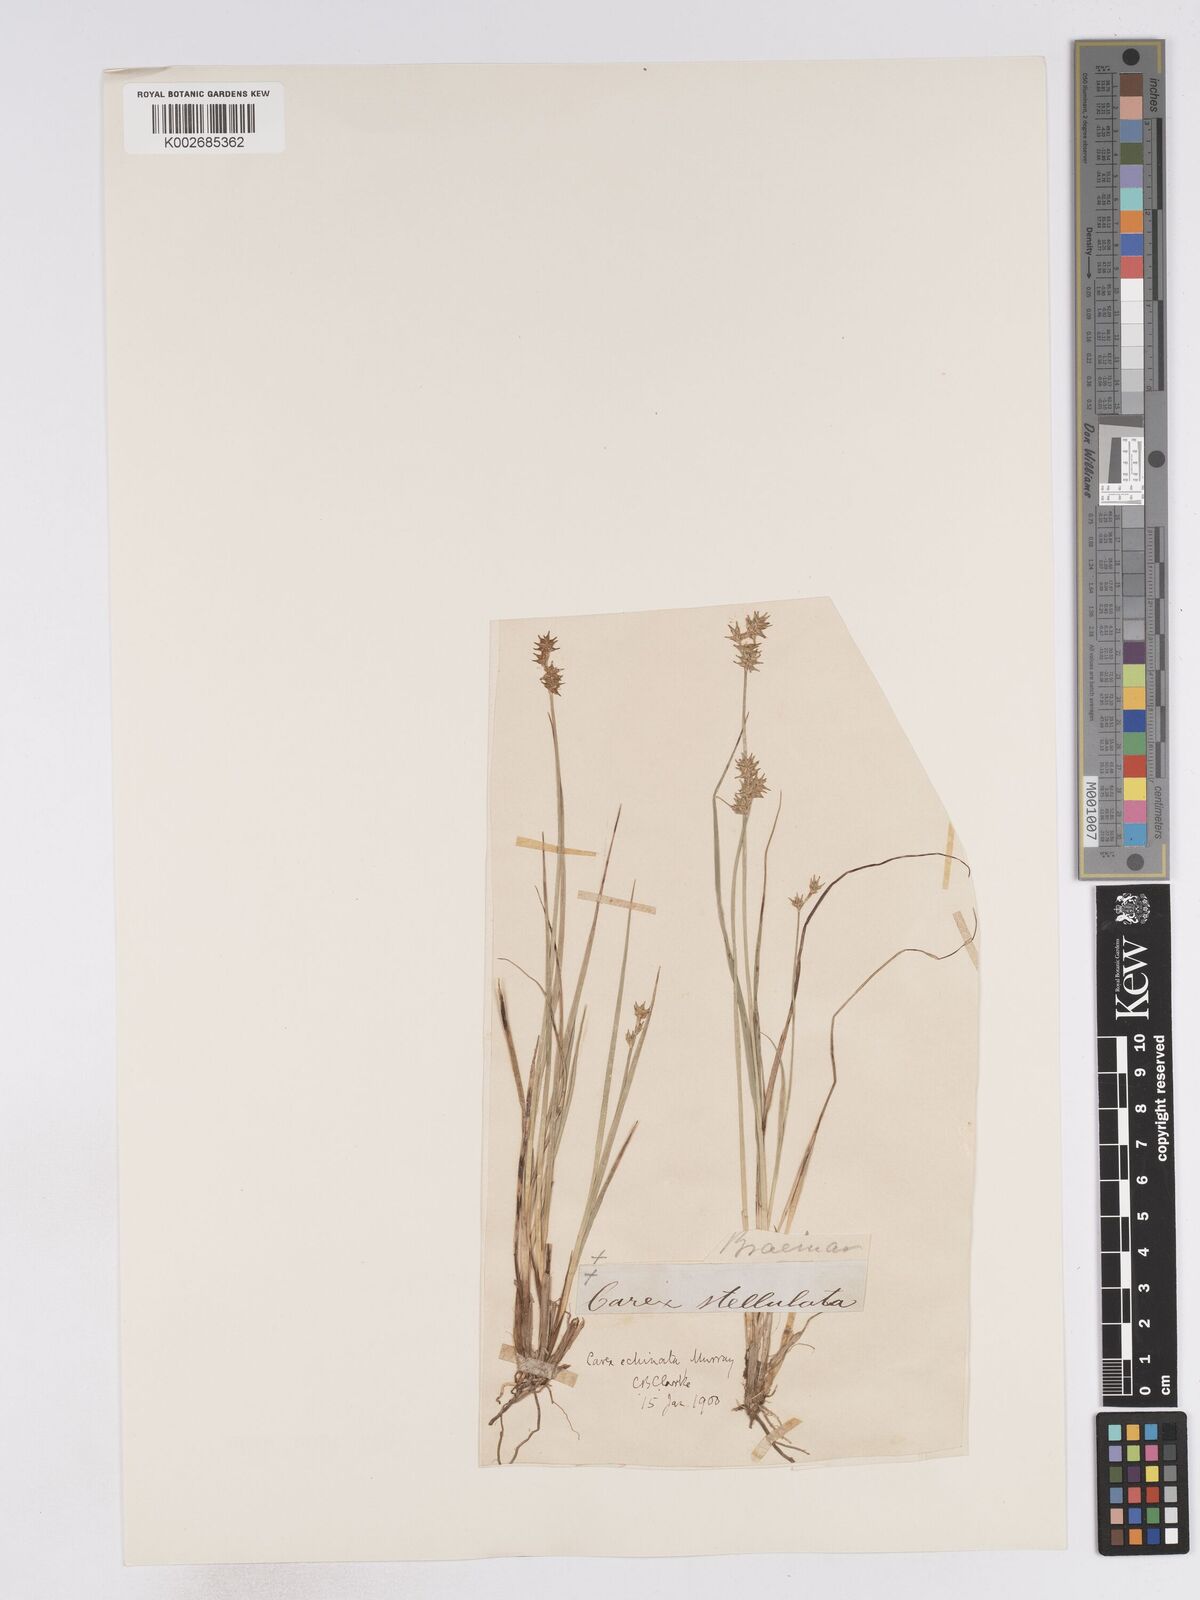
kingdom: Plantae
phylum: Tracheophyta
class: Liliopsida
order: Poales
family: Cyperaceae
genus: Carex
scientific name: Carex echinata
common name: Star sedge
